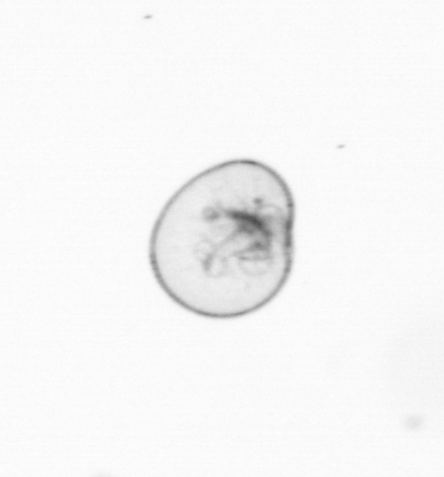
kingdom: Chromista
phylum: Myzozoa
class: Dinophyceae
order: Noctilucales
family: Noctilucaceae
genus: Noctiluca
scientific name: Noctiluca scintillans
